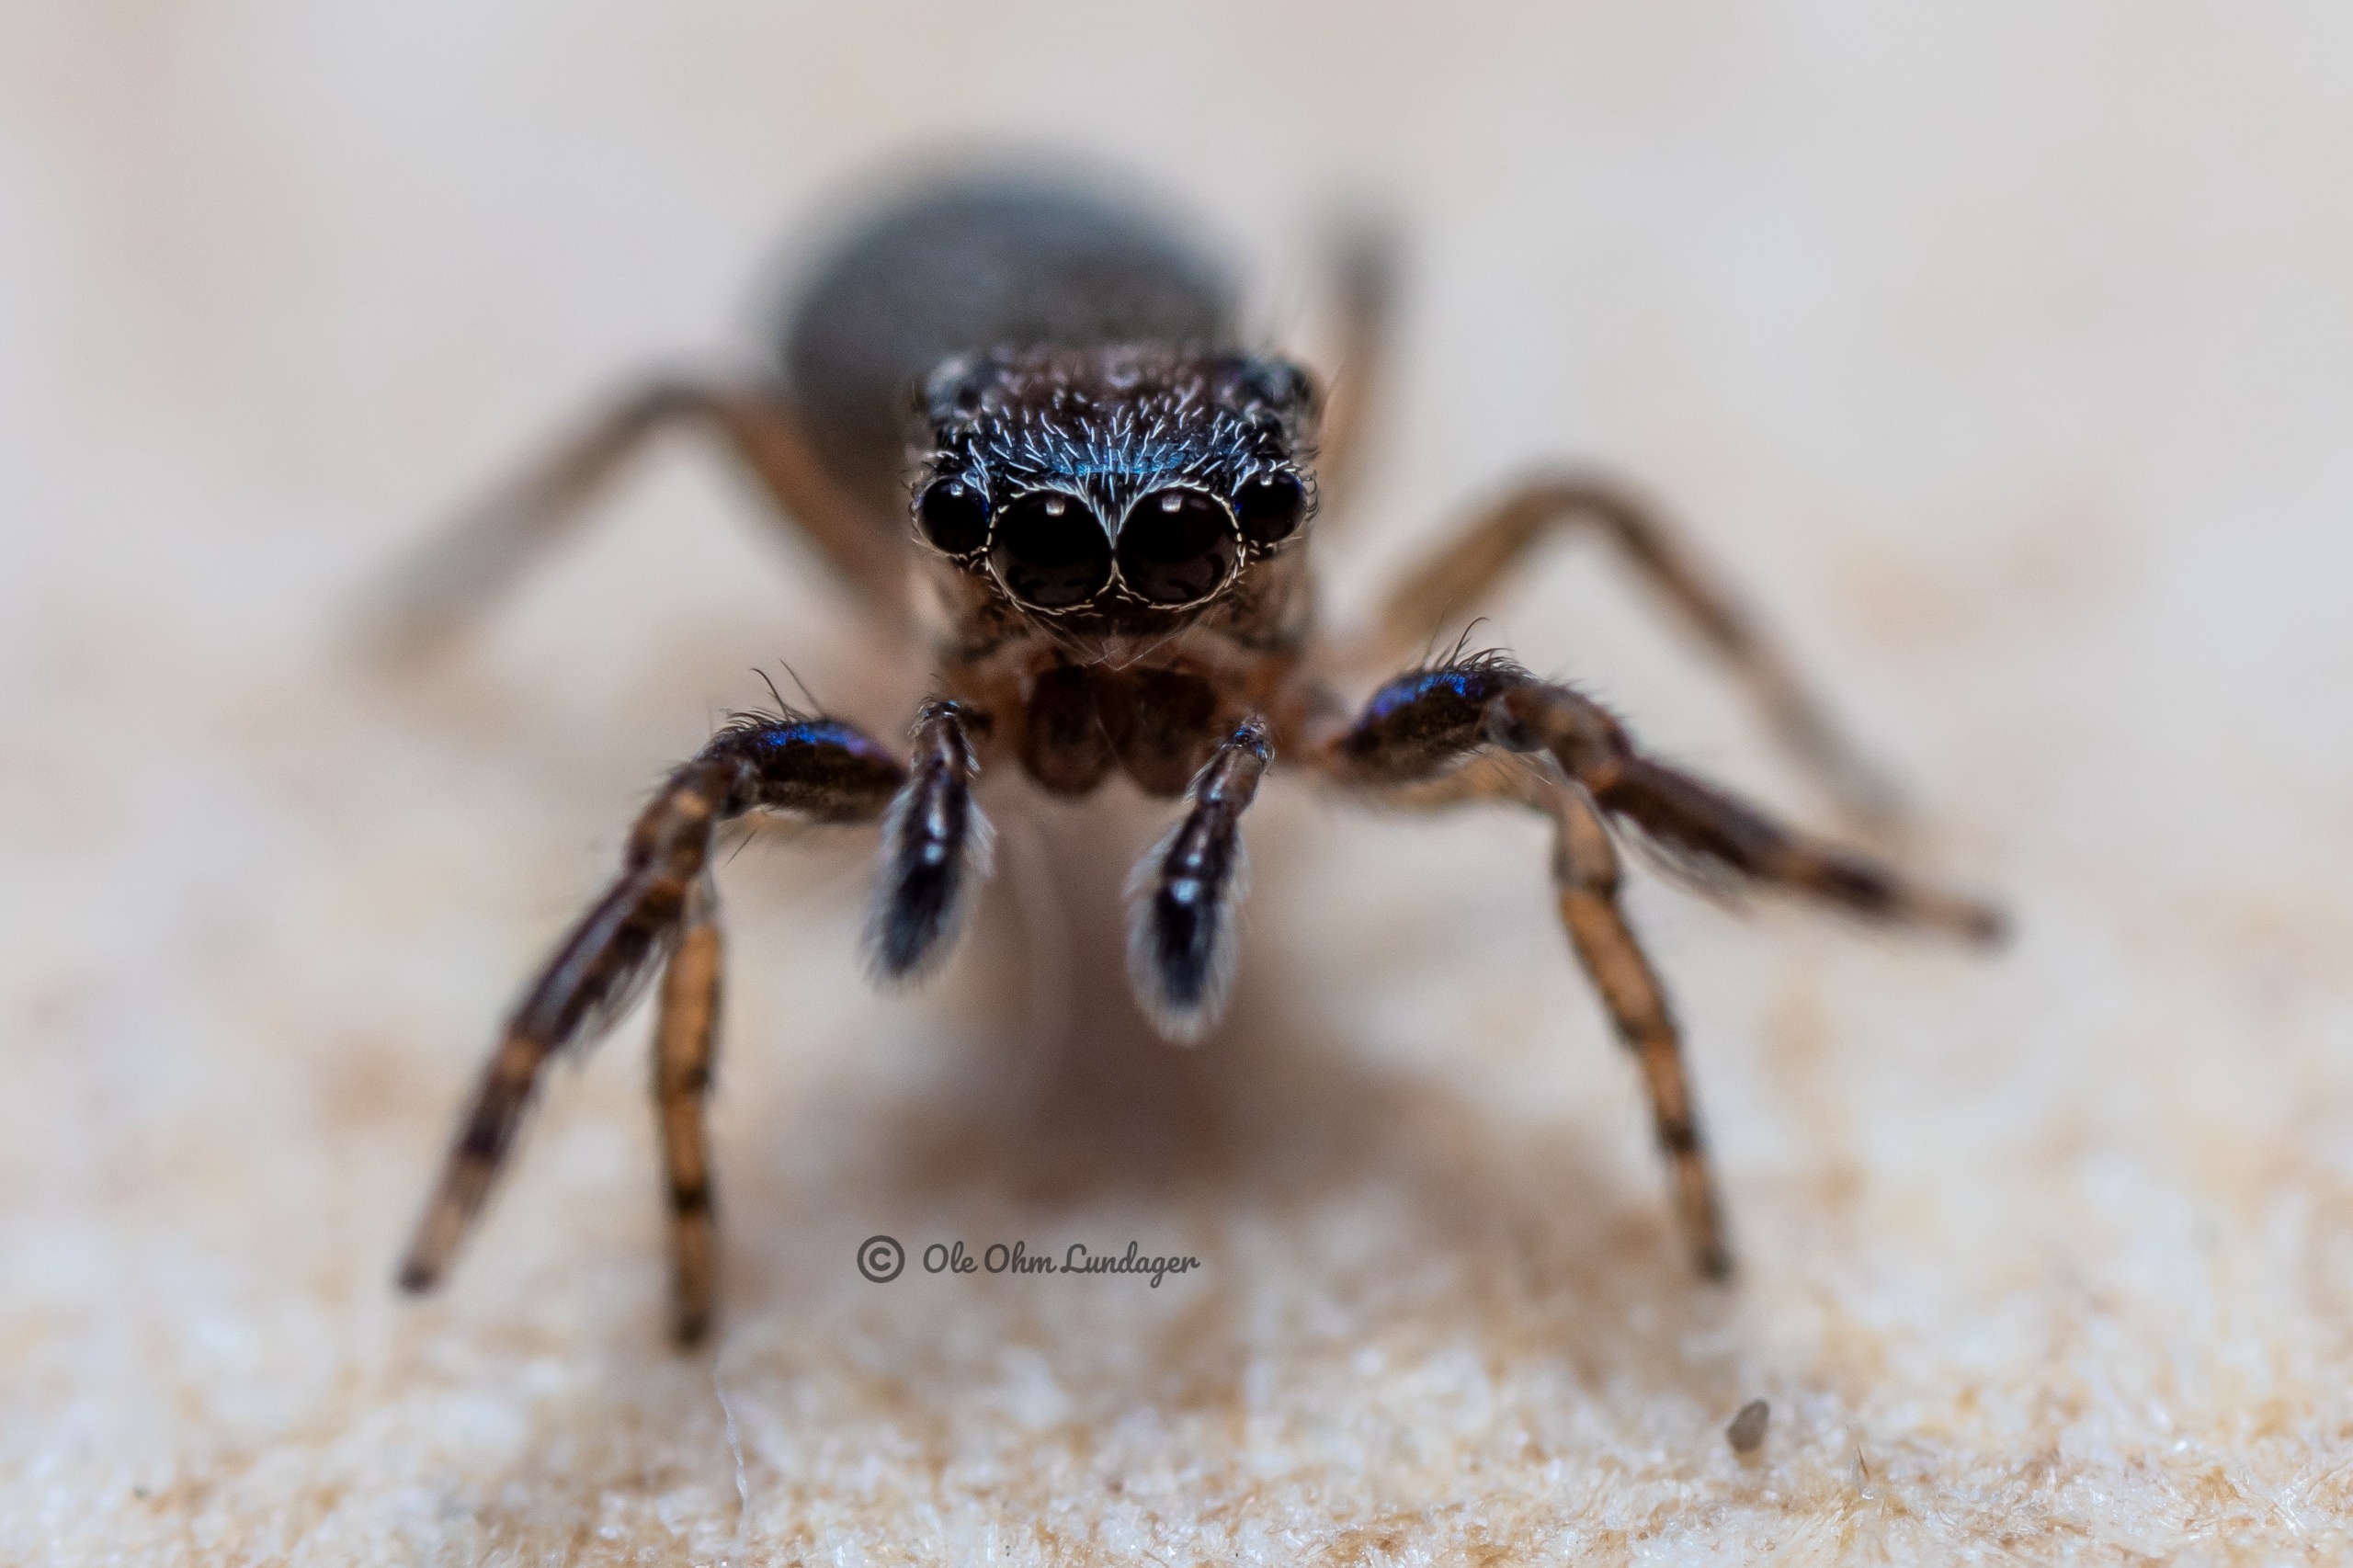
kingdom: Animalia
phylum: Arthropoda
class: Arachnida
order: Araneae
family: Salticidae
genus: Neon
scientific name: Neon reticulatus
